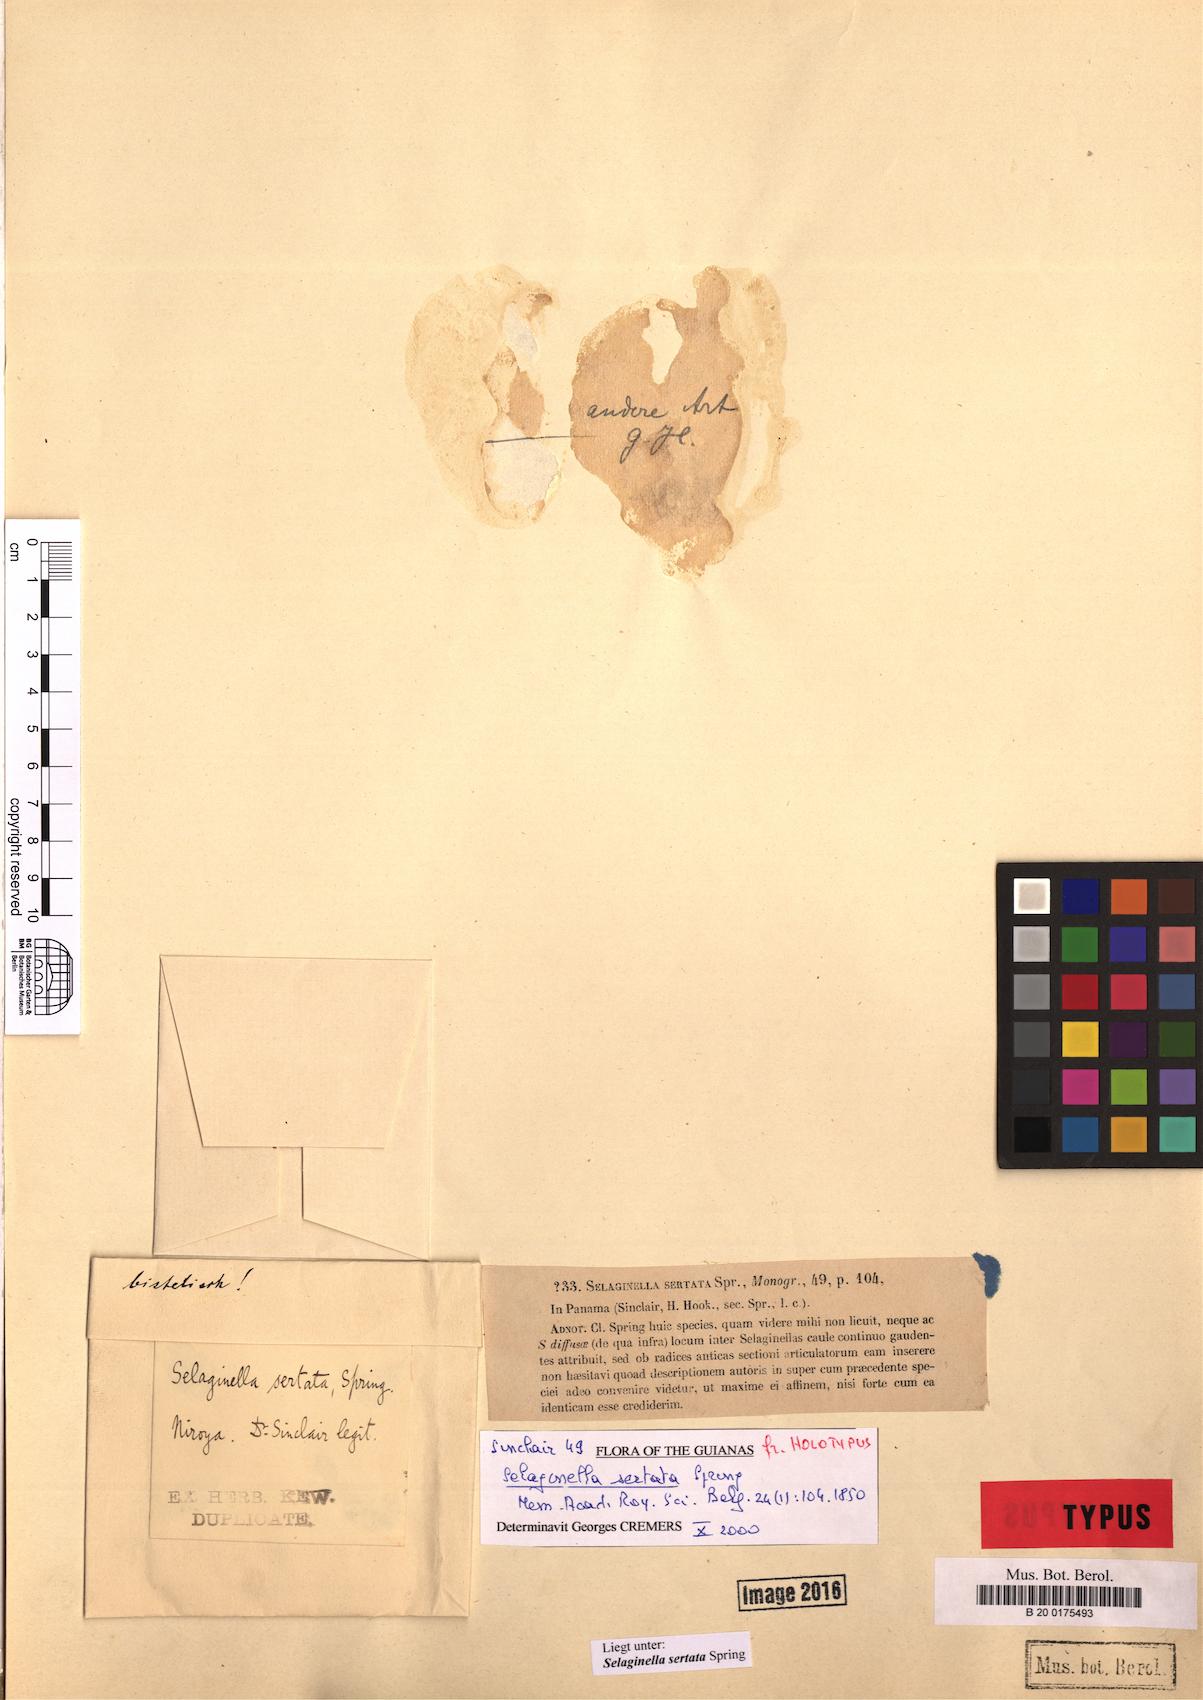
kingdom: Plantae
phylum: Tracheophyta
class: Lycopodiopsida
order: Selaginellales
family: Selaginellaceae
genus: Selaginella
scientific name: Selaginella sertata
